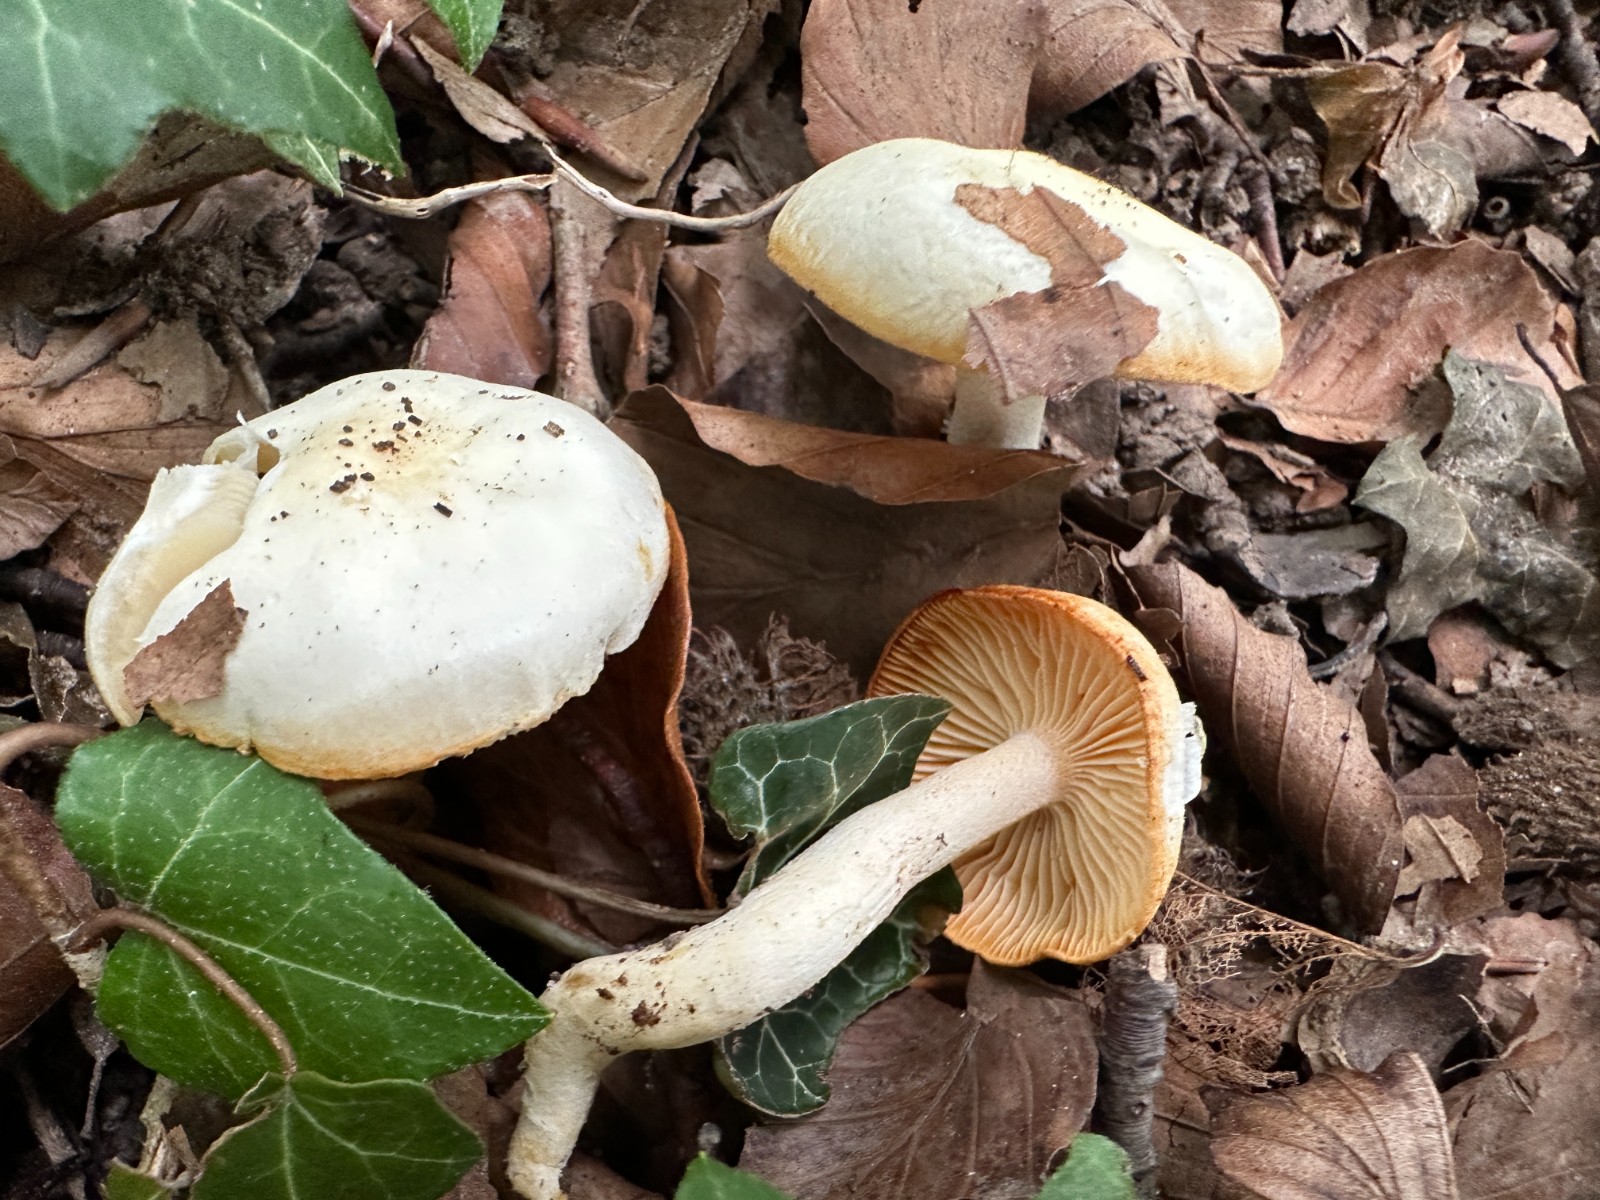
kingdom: Fungi
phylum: Basidiomycota
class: Agaricomycetes
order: Agaricales
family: Hygrophoraceae
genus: Hygrophorus
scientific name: Hygrophorus discoxanthus
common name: ildelugtende sneglehat
